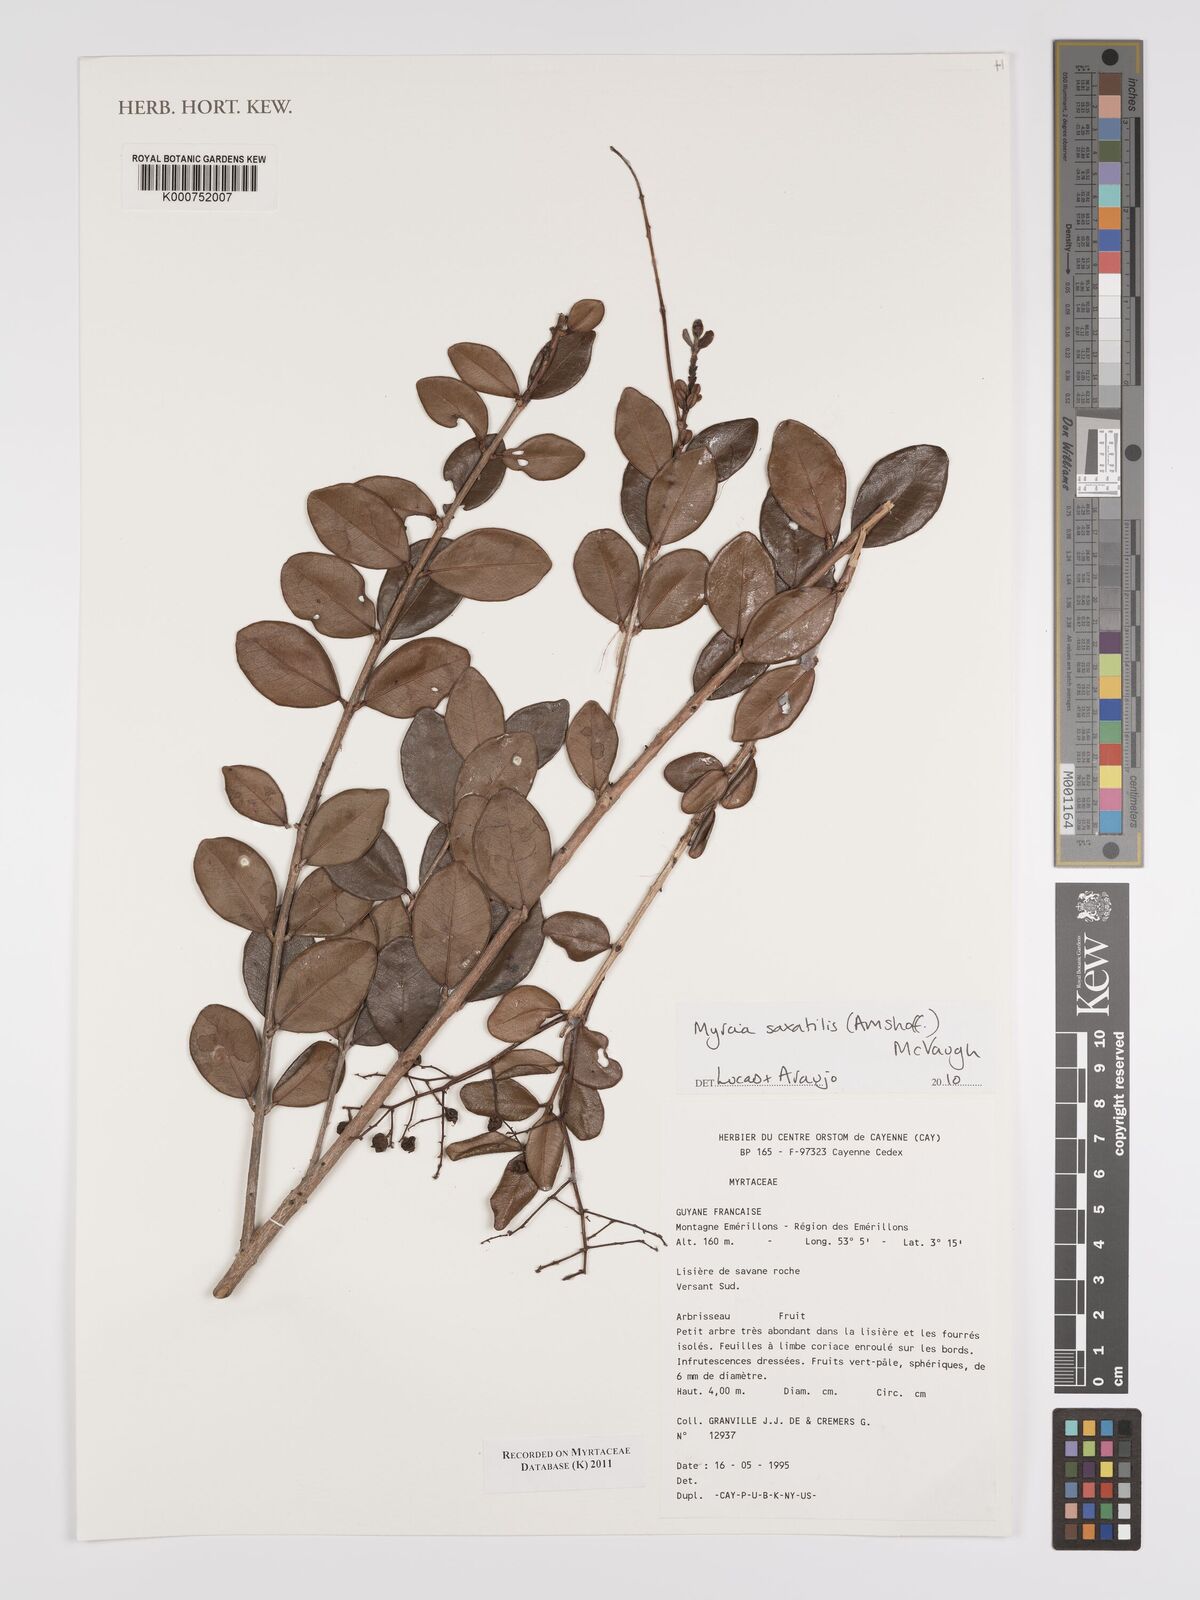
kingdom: Plantae
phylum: Tracheophyta
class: Magnoliopsida
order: Myrtales
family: Myrtaceae
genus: Myrcia
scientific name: Myrcia saxatilis
